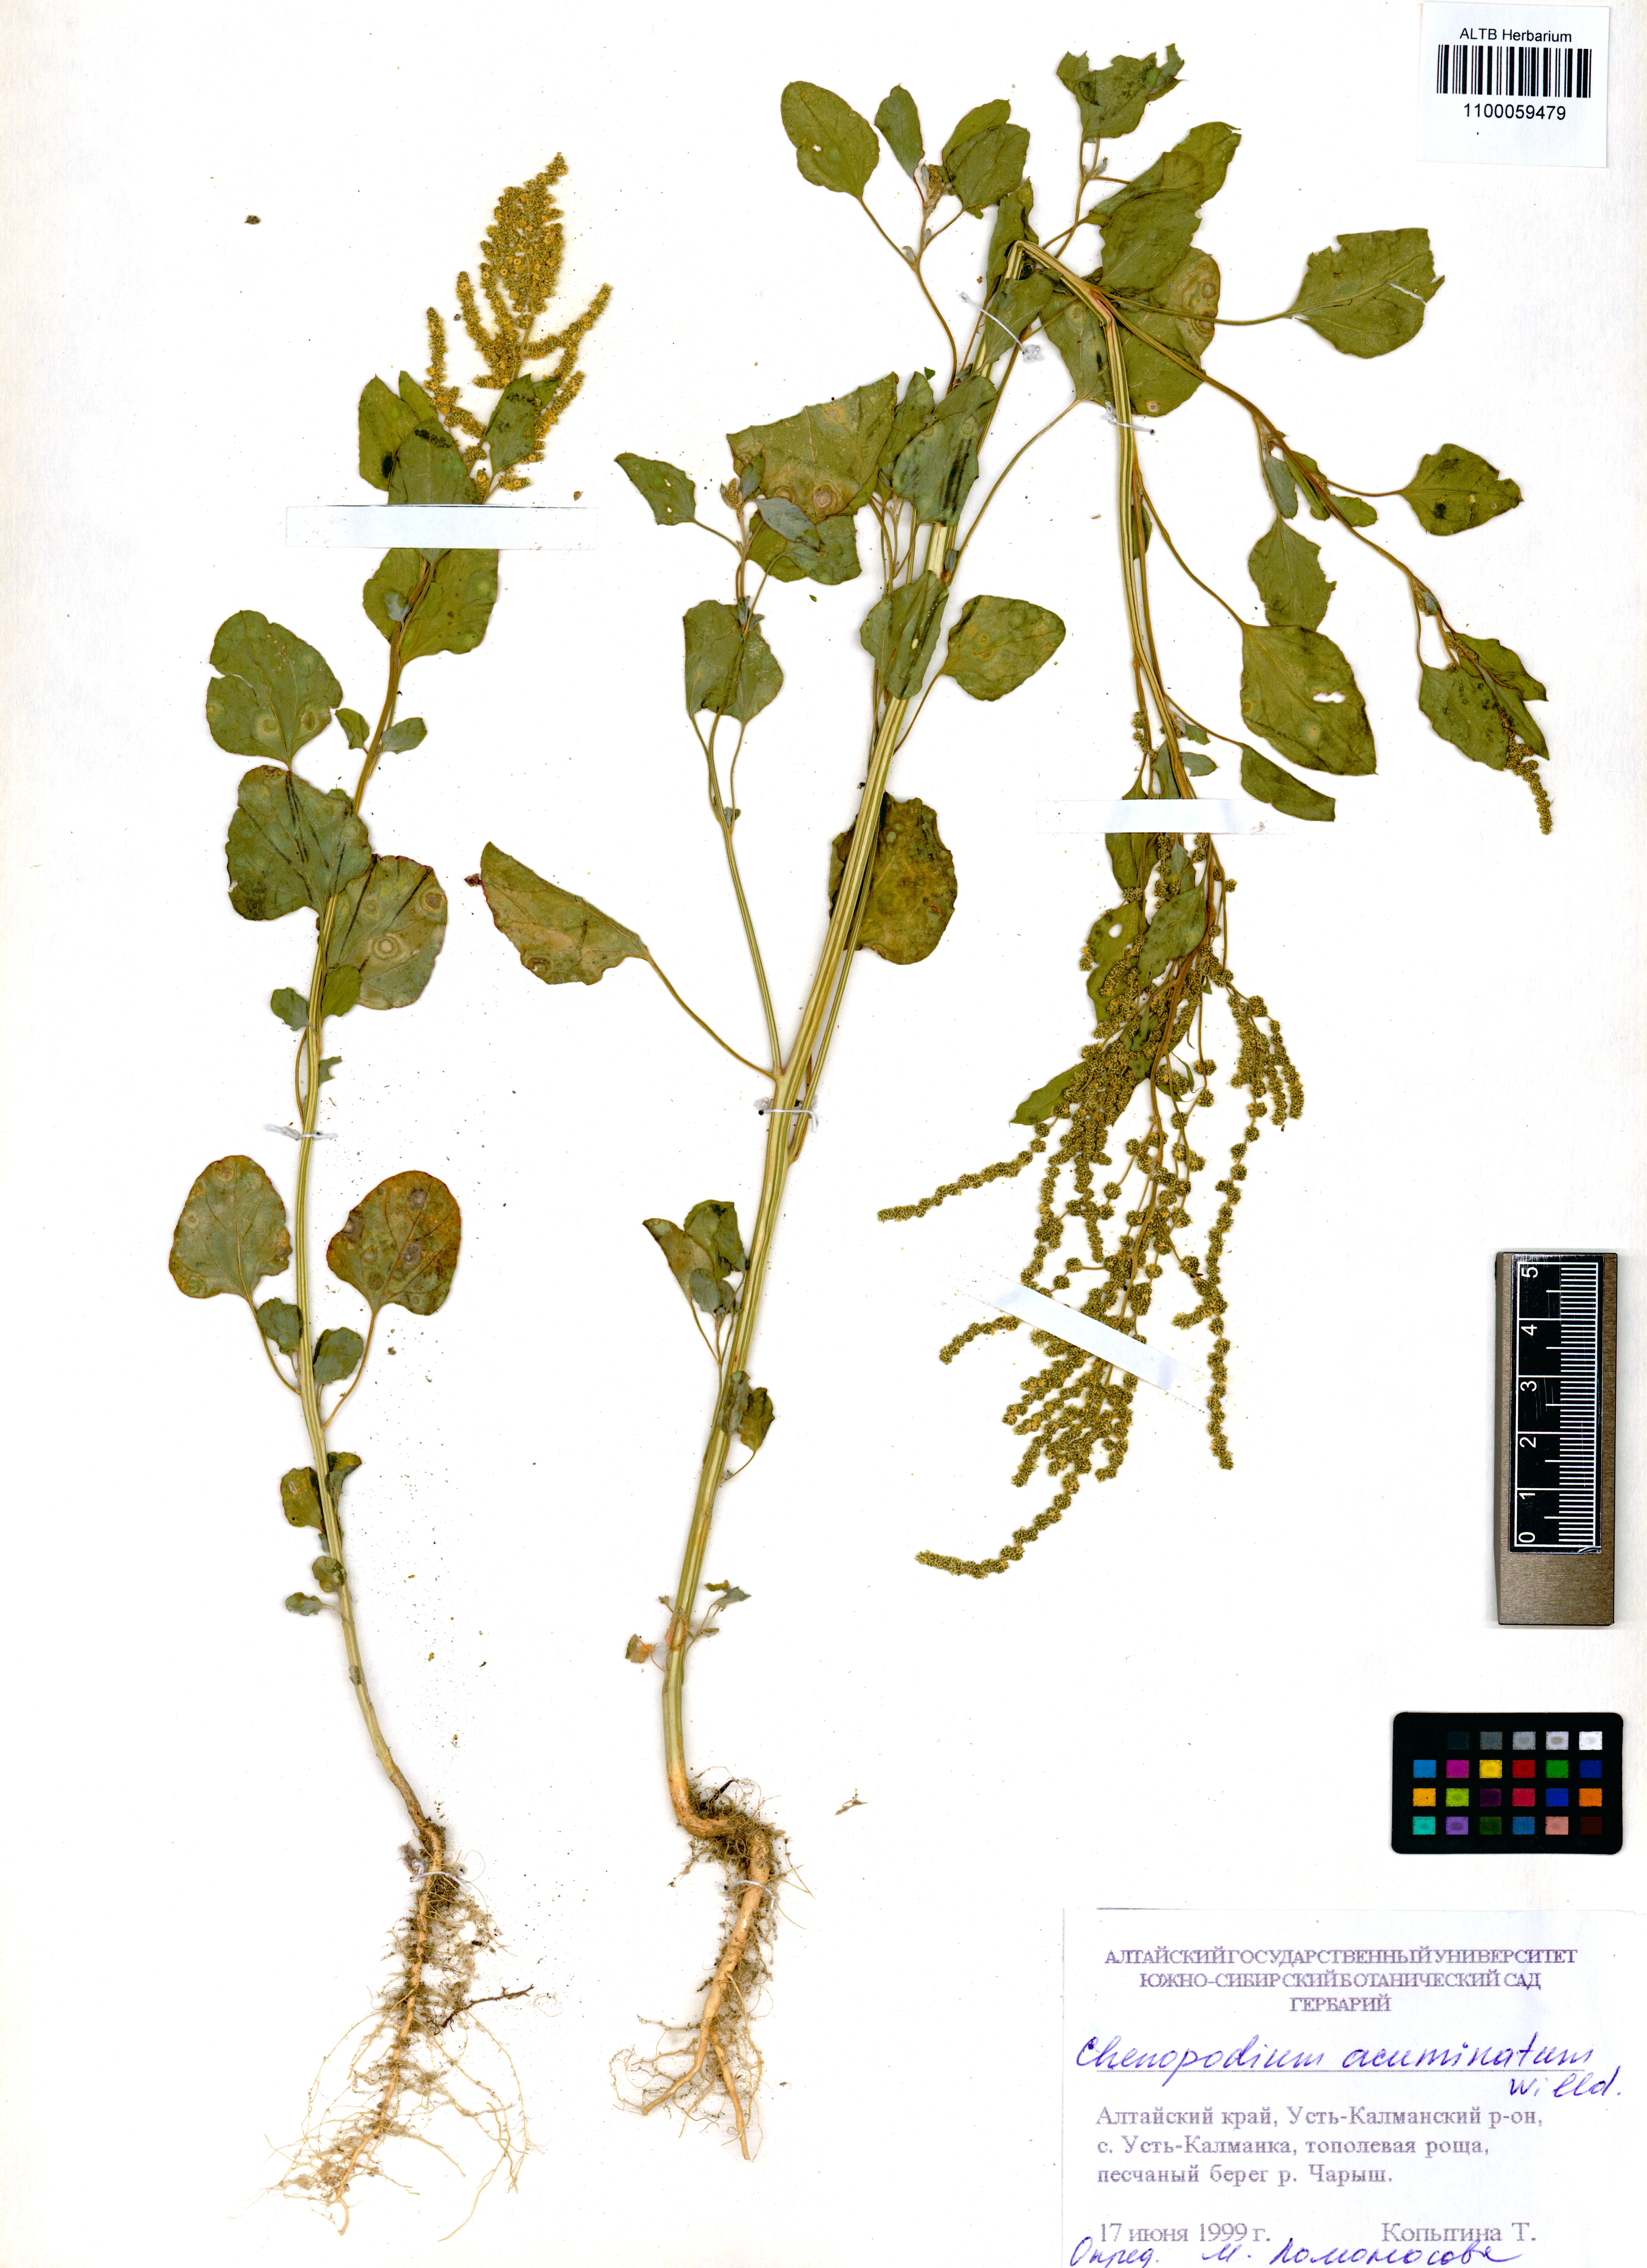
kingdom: Plantae
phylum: Tracheophyta
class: Magnoliopsida
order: Caryophyllales
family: Amaranthaceae
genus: Chenopodium
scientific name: Chenopodium acuminatum
